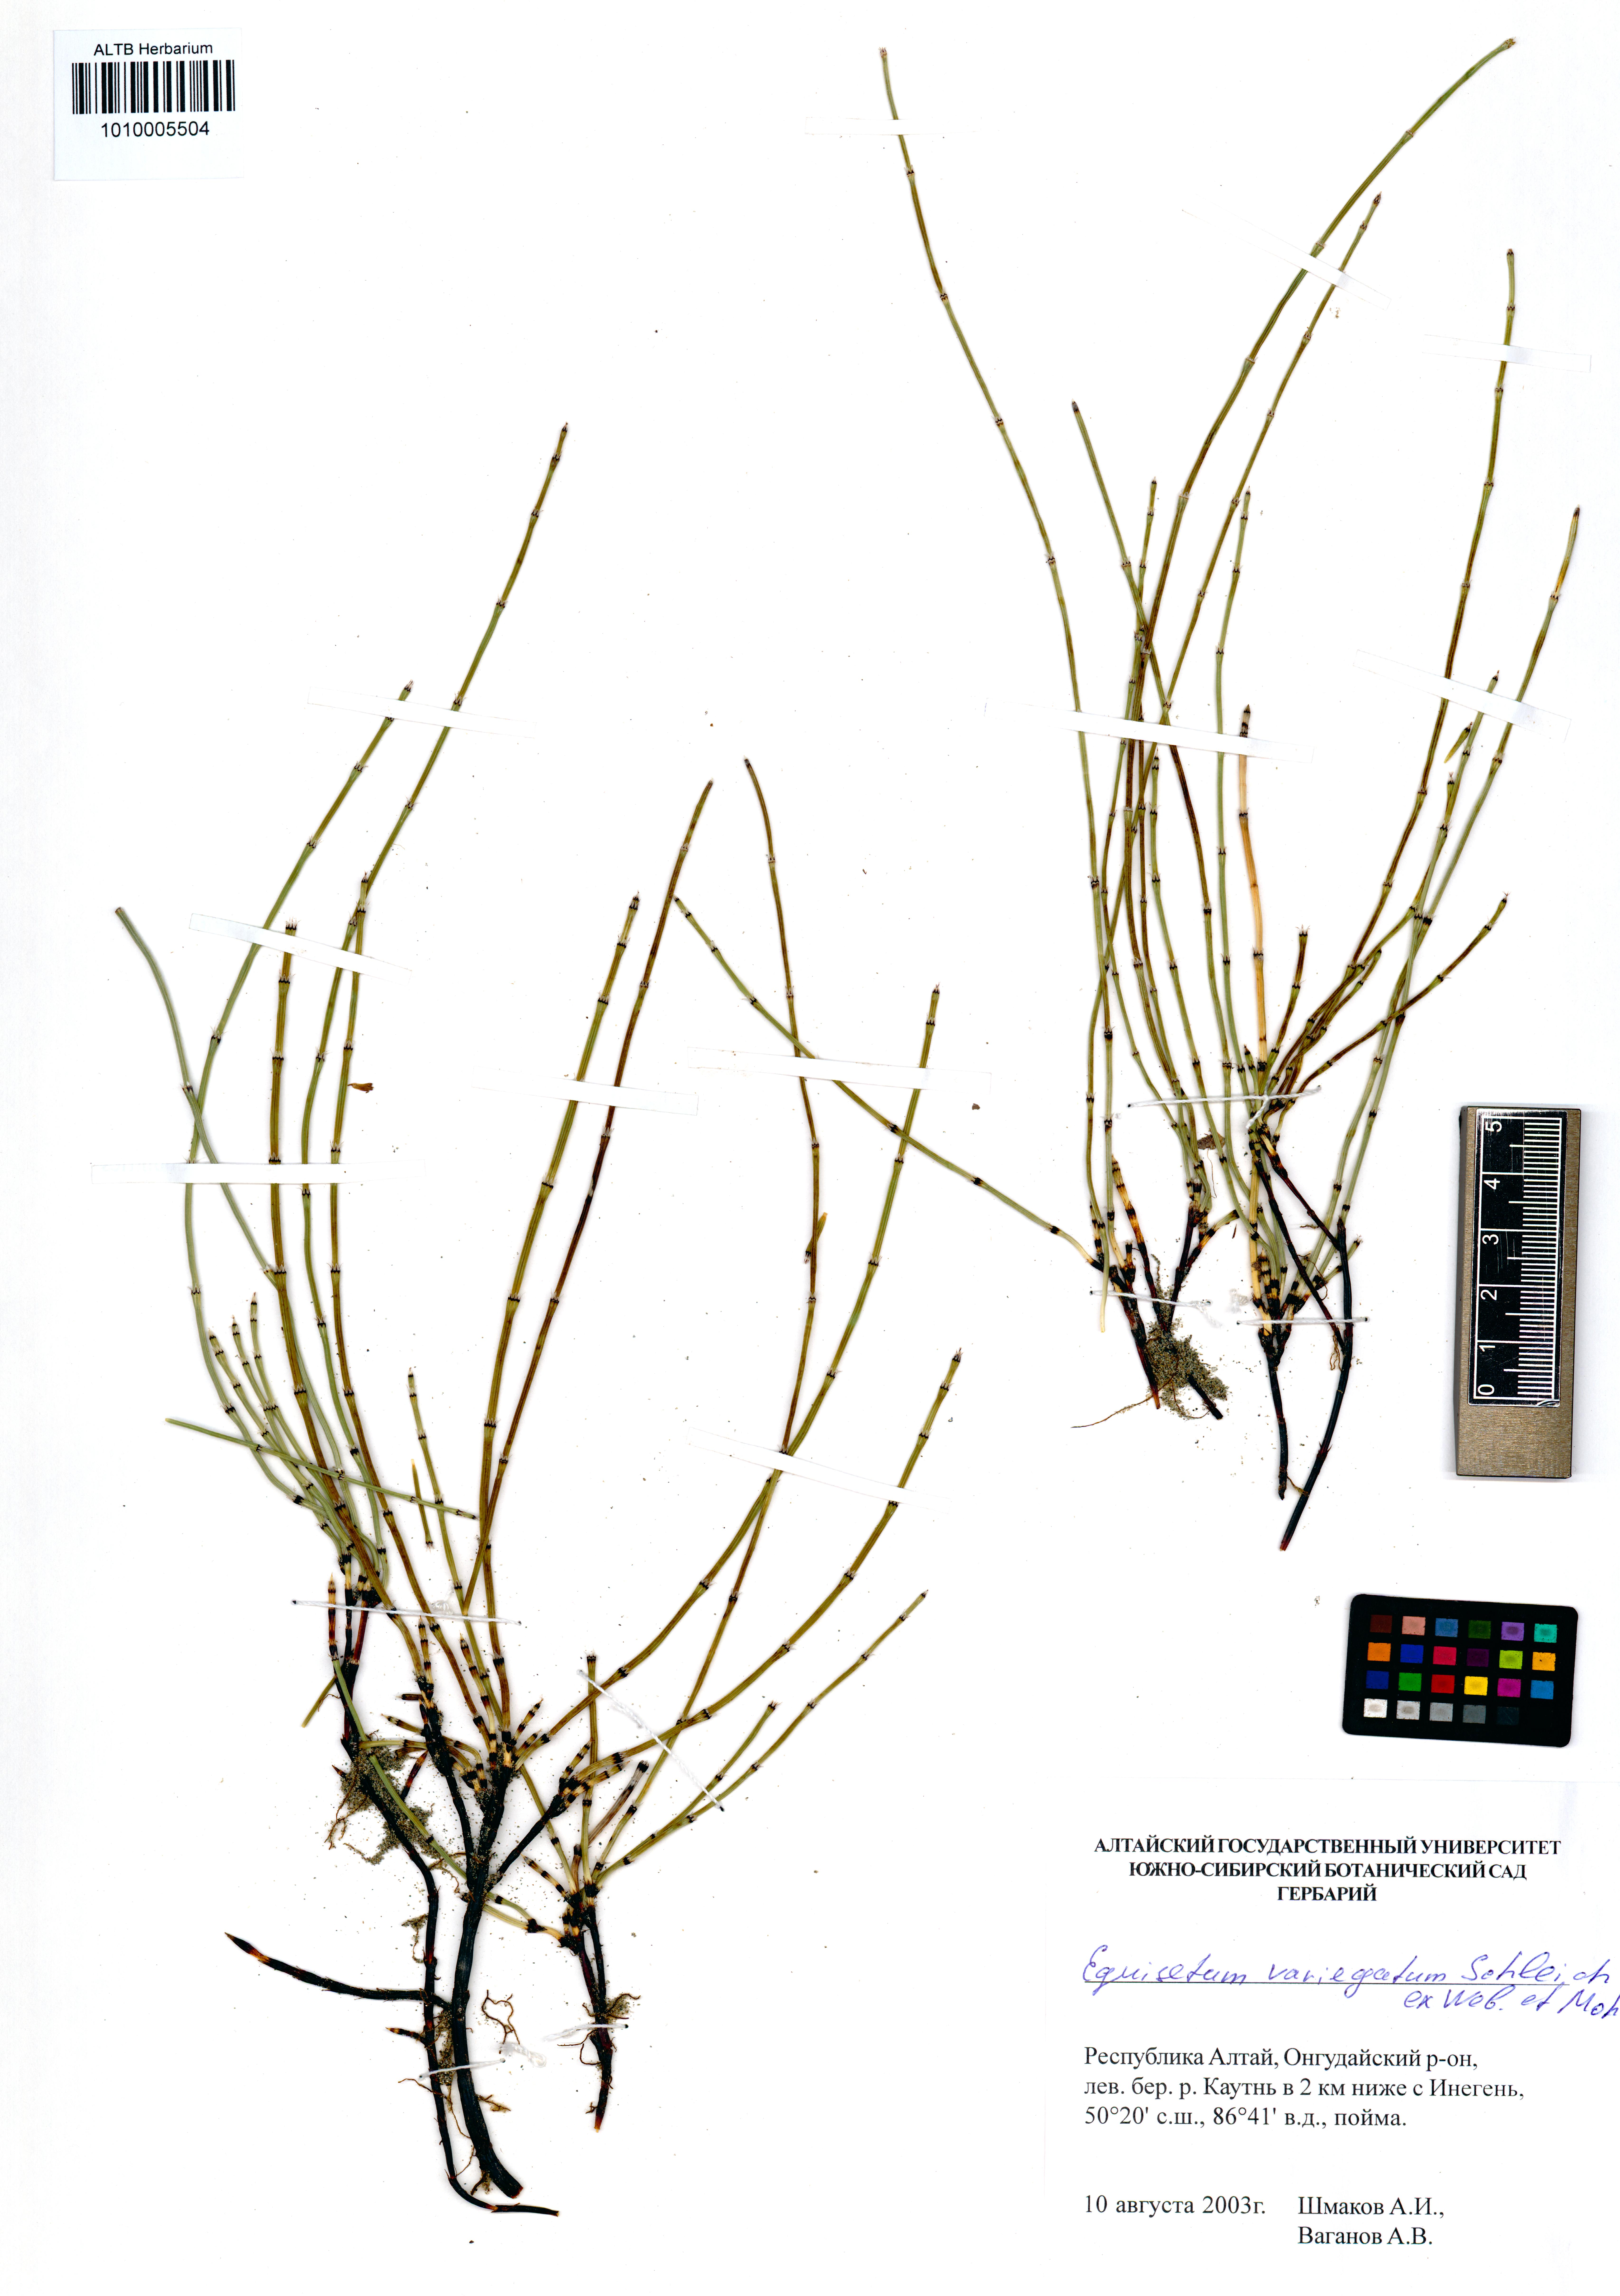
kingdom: Plantae
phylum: Tracheophyta
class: Polypodiopsida
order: Equisetales
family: Equisetaceae
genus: Equisetum
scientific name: Equisetum variegatum
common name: Variegated horsetail
